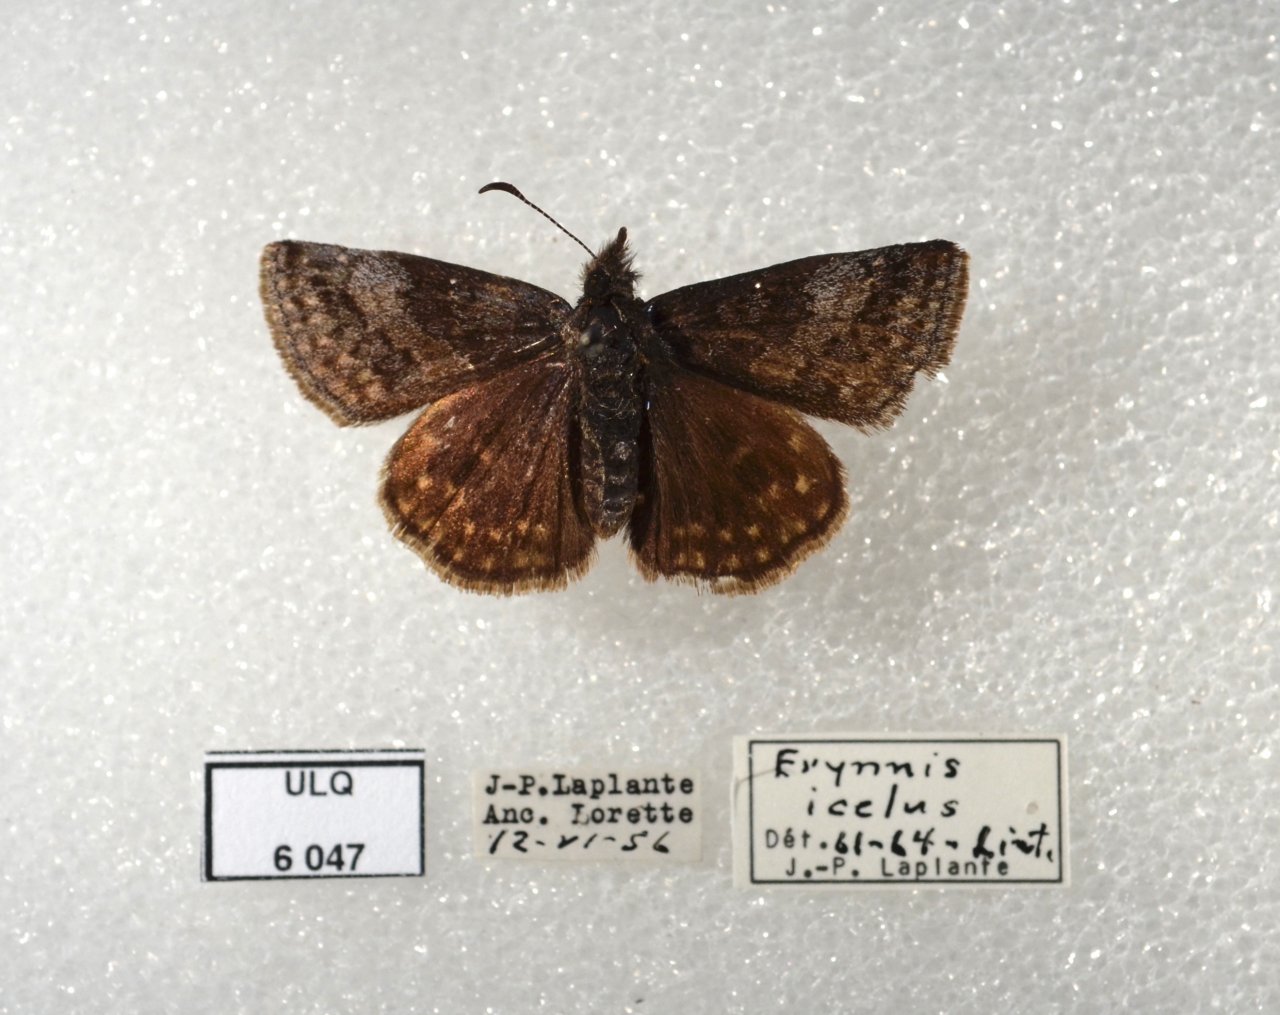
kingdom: Animalia
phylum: Arthropoda
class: Insecta
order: Lepidoptera
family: Hesperiidae
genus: Erynnis
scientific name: Erynnis icelus
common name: Dreamy Duskywing
